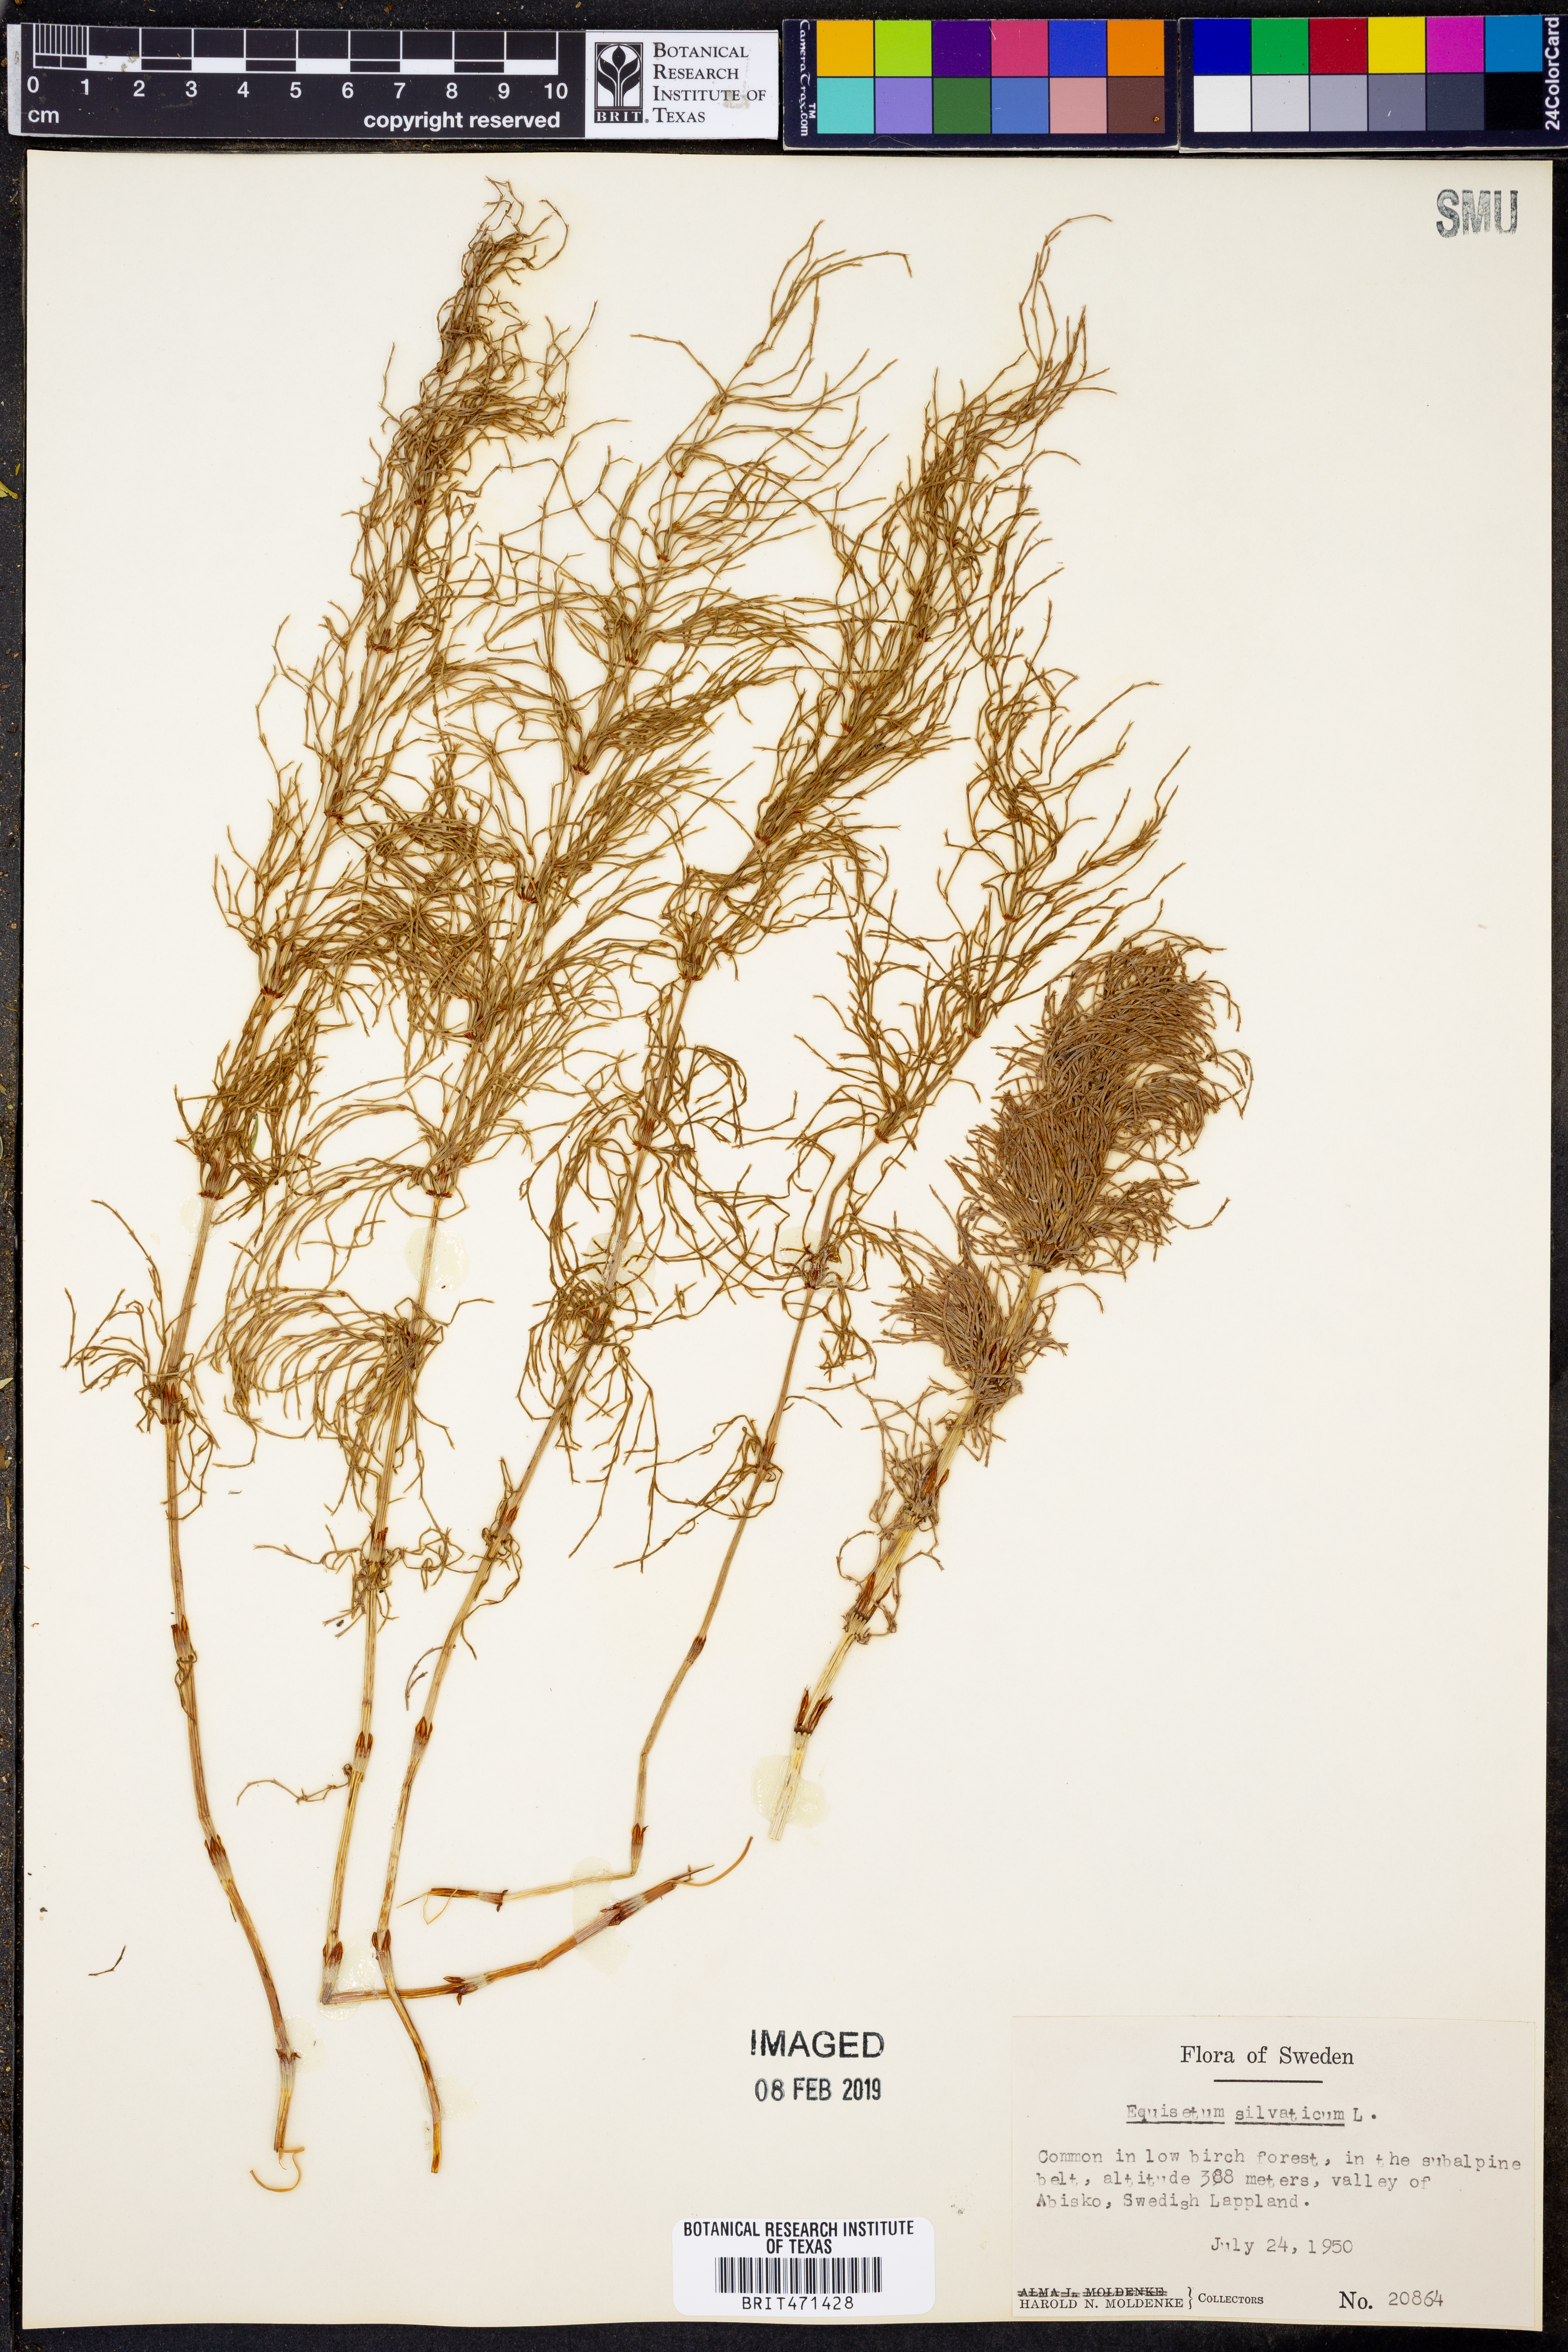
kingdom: Plantae
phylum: Tracheophyta
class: Polypodiopsida
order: Equisetales
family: Equisetaceae
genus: Equisetum
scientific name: Equisetum sylvaticum
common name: Wood horsetail
